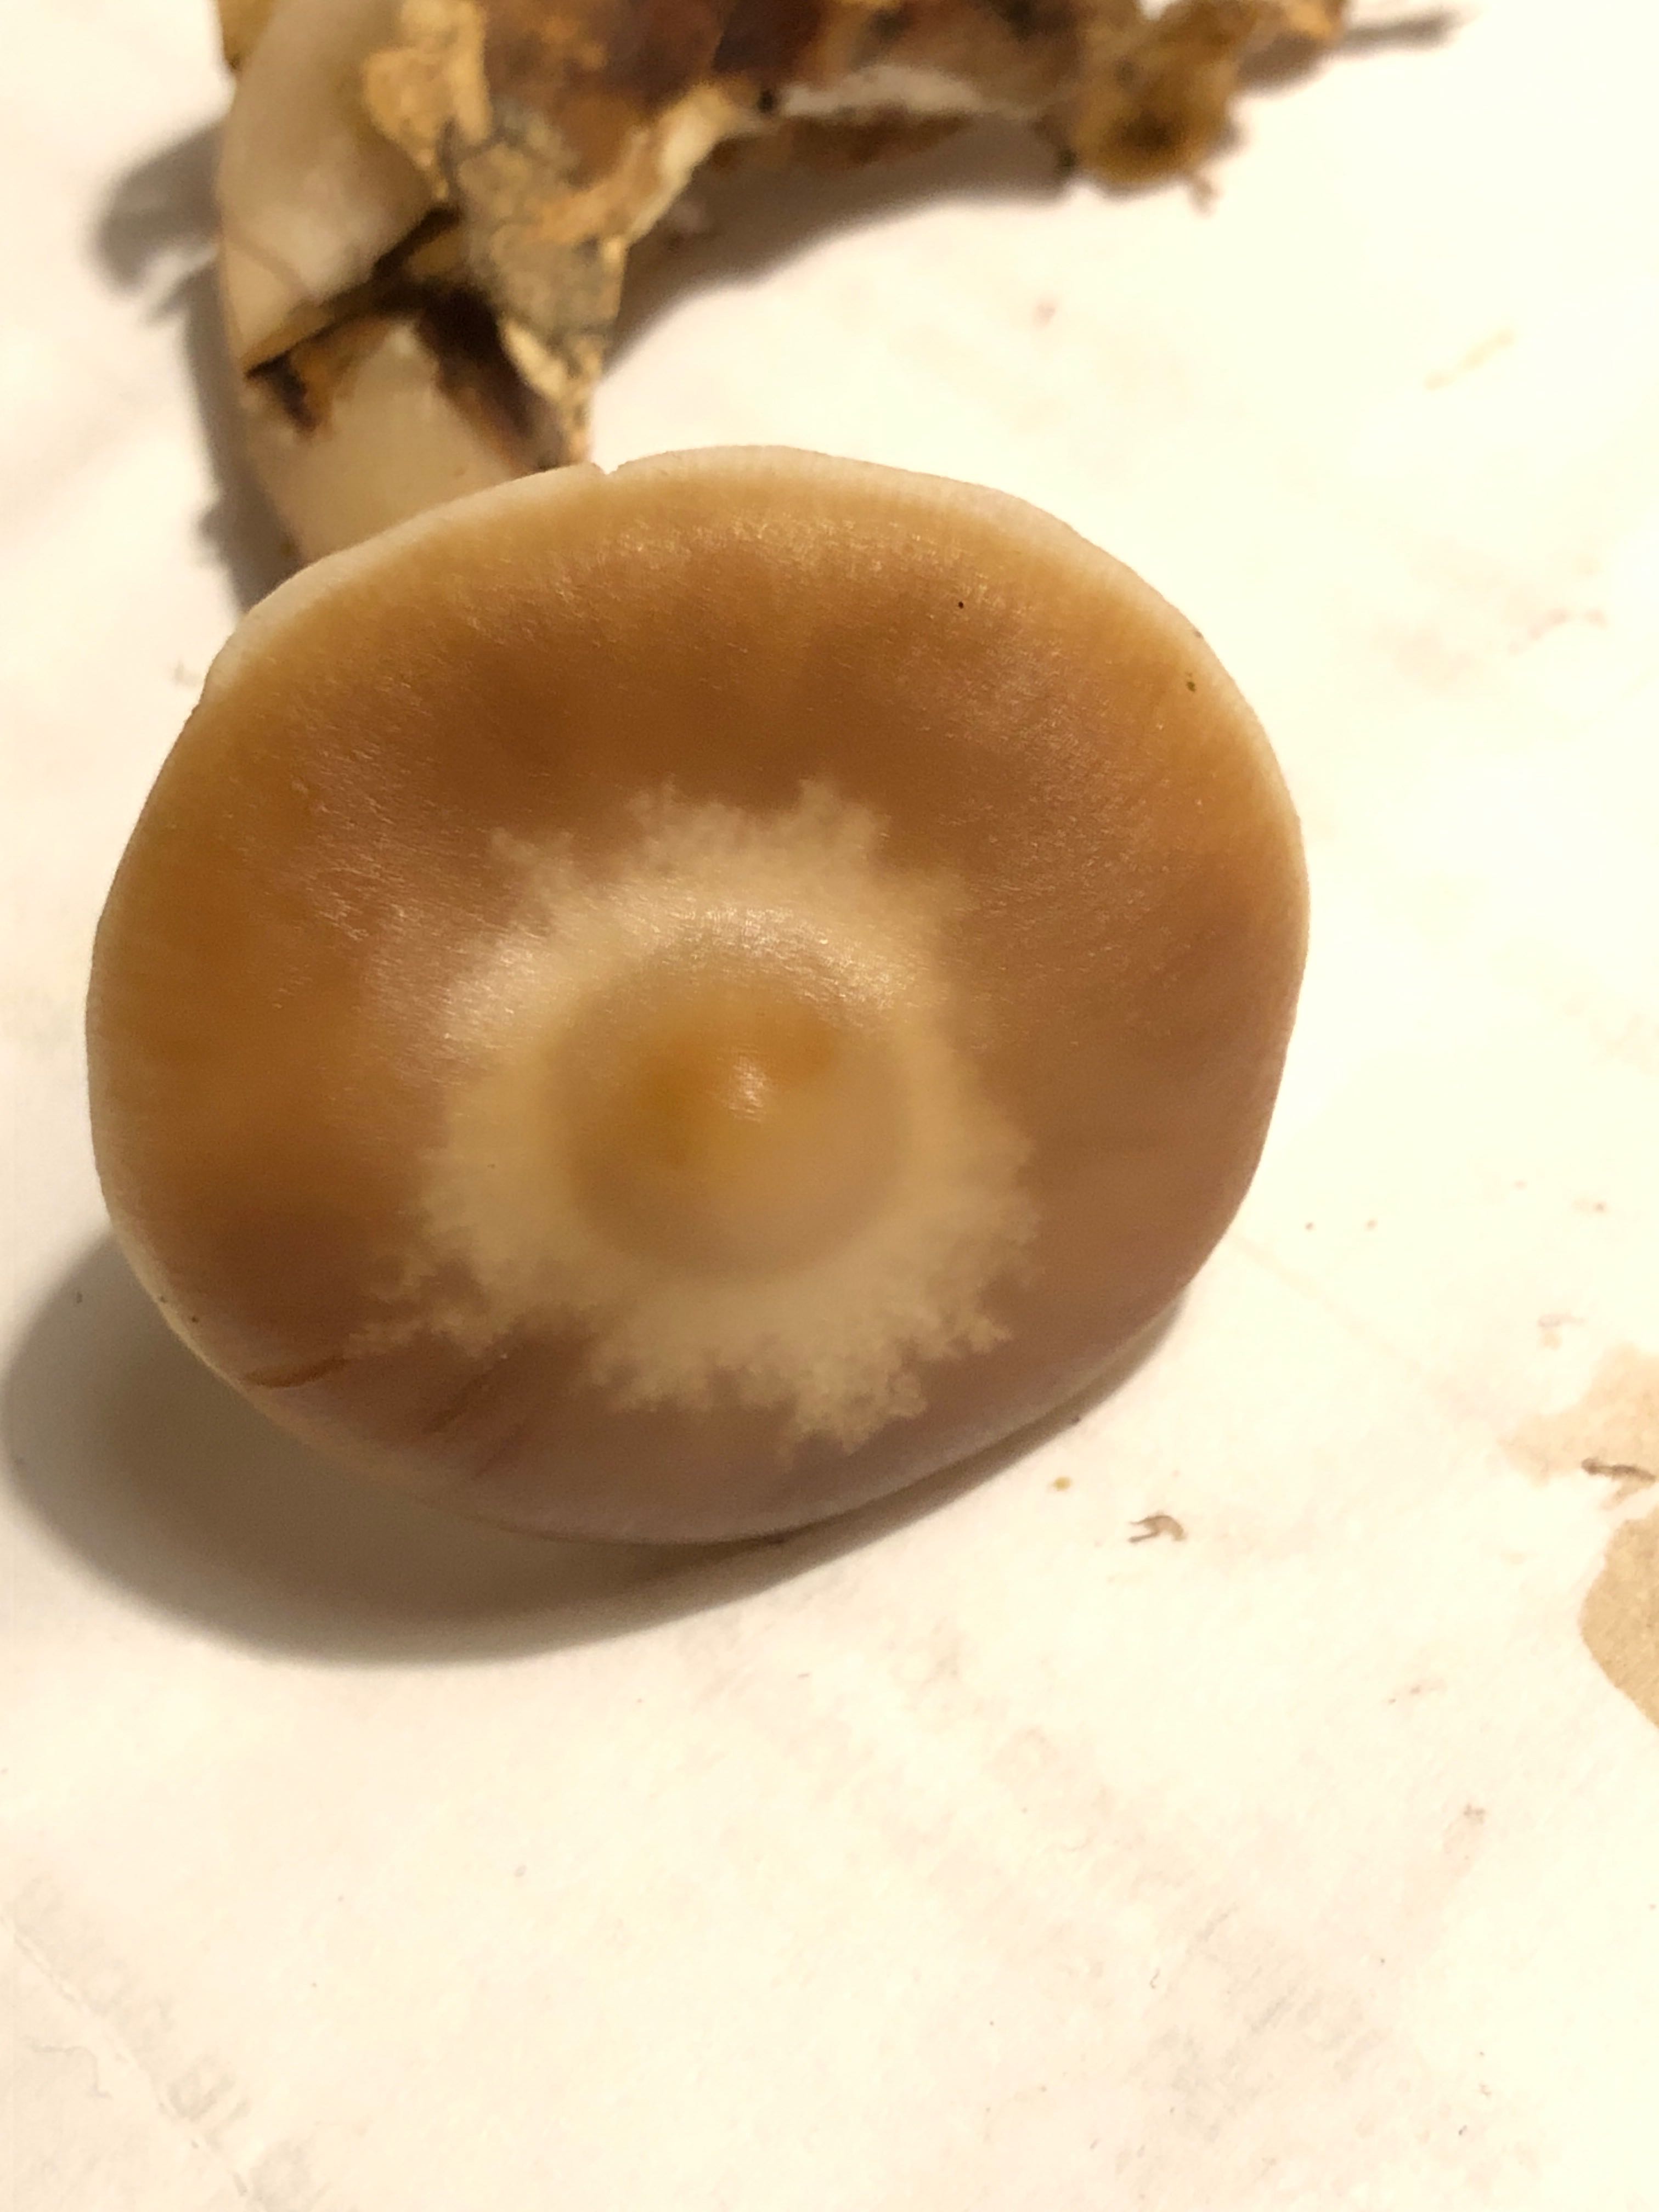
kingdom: Fungi
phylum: Basidiomycota
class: Agaricomycetes
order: Agaricales
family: Omphalotaceae
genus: Rhodocollybia
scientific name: Rhodocollybia asema
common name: horngrå fladhat
